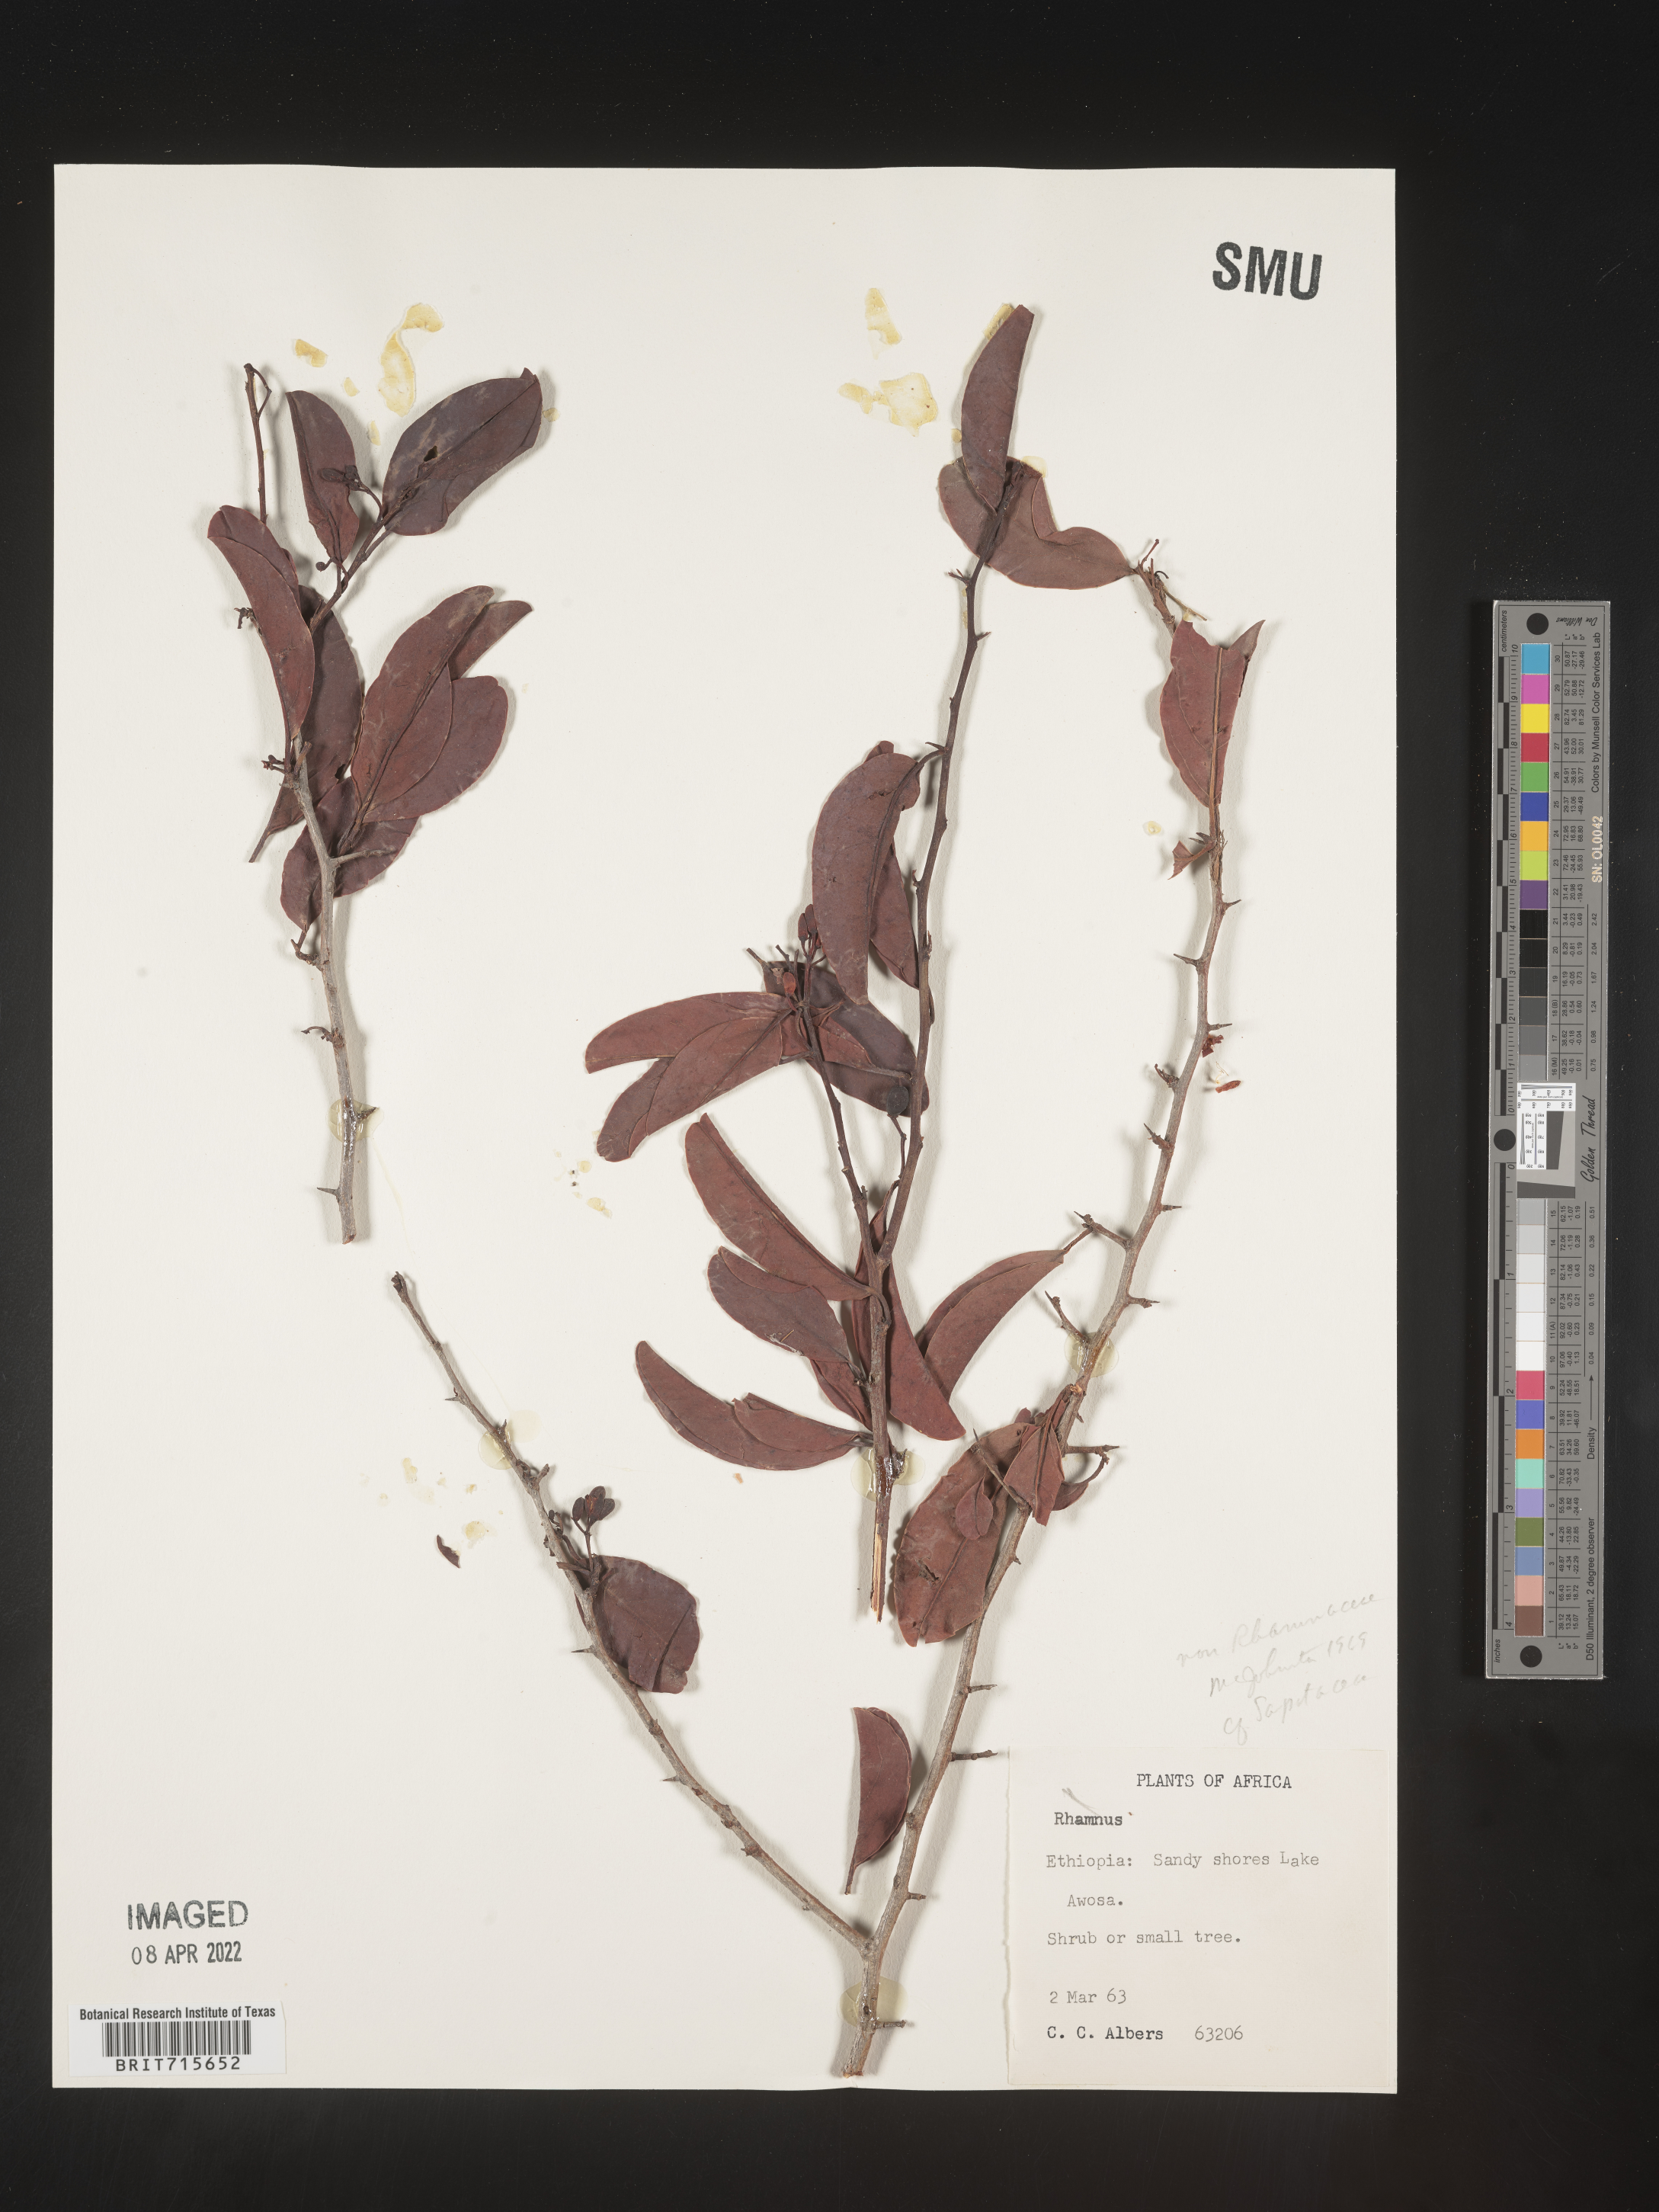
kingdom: Plantae
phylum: Tracheophyta
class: Magnoliopsida
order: Ericales
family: Sapotaceae
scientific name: Sapotaceae
